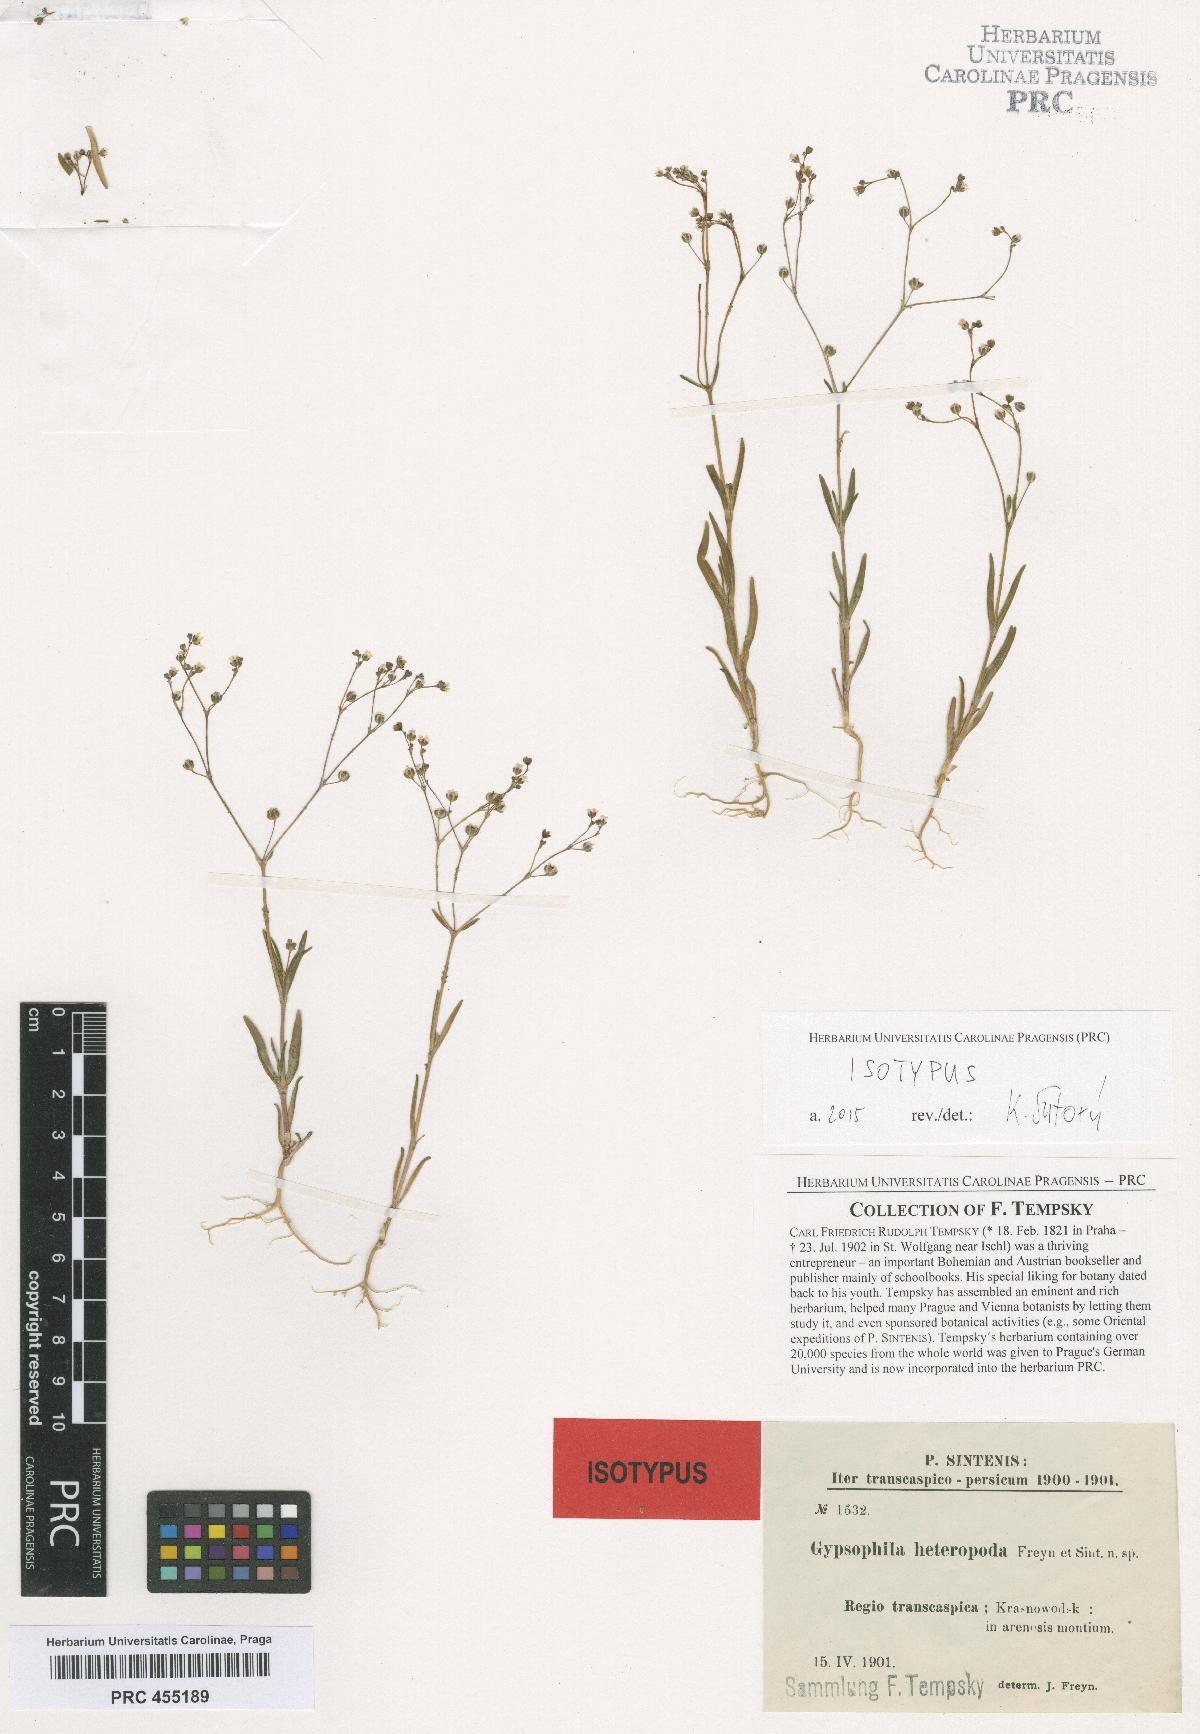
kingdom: Plantae
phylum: Tracheophyta
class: Magnoliopsida
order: Caryophyllales
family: Caryophyllaceae
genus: Gypsophila
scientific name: Gypsophila heteropoda
